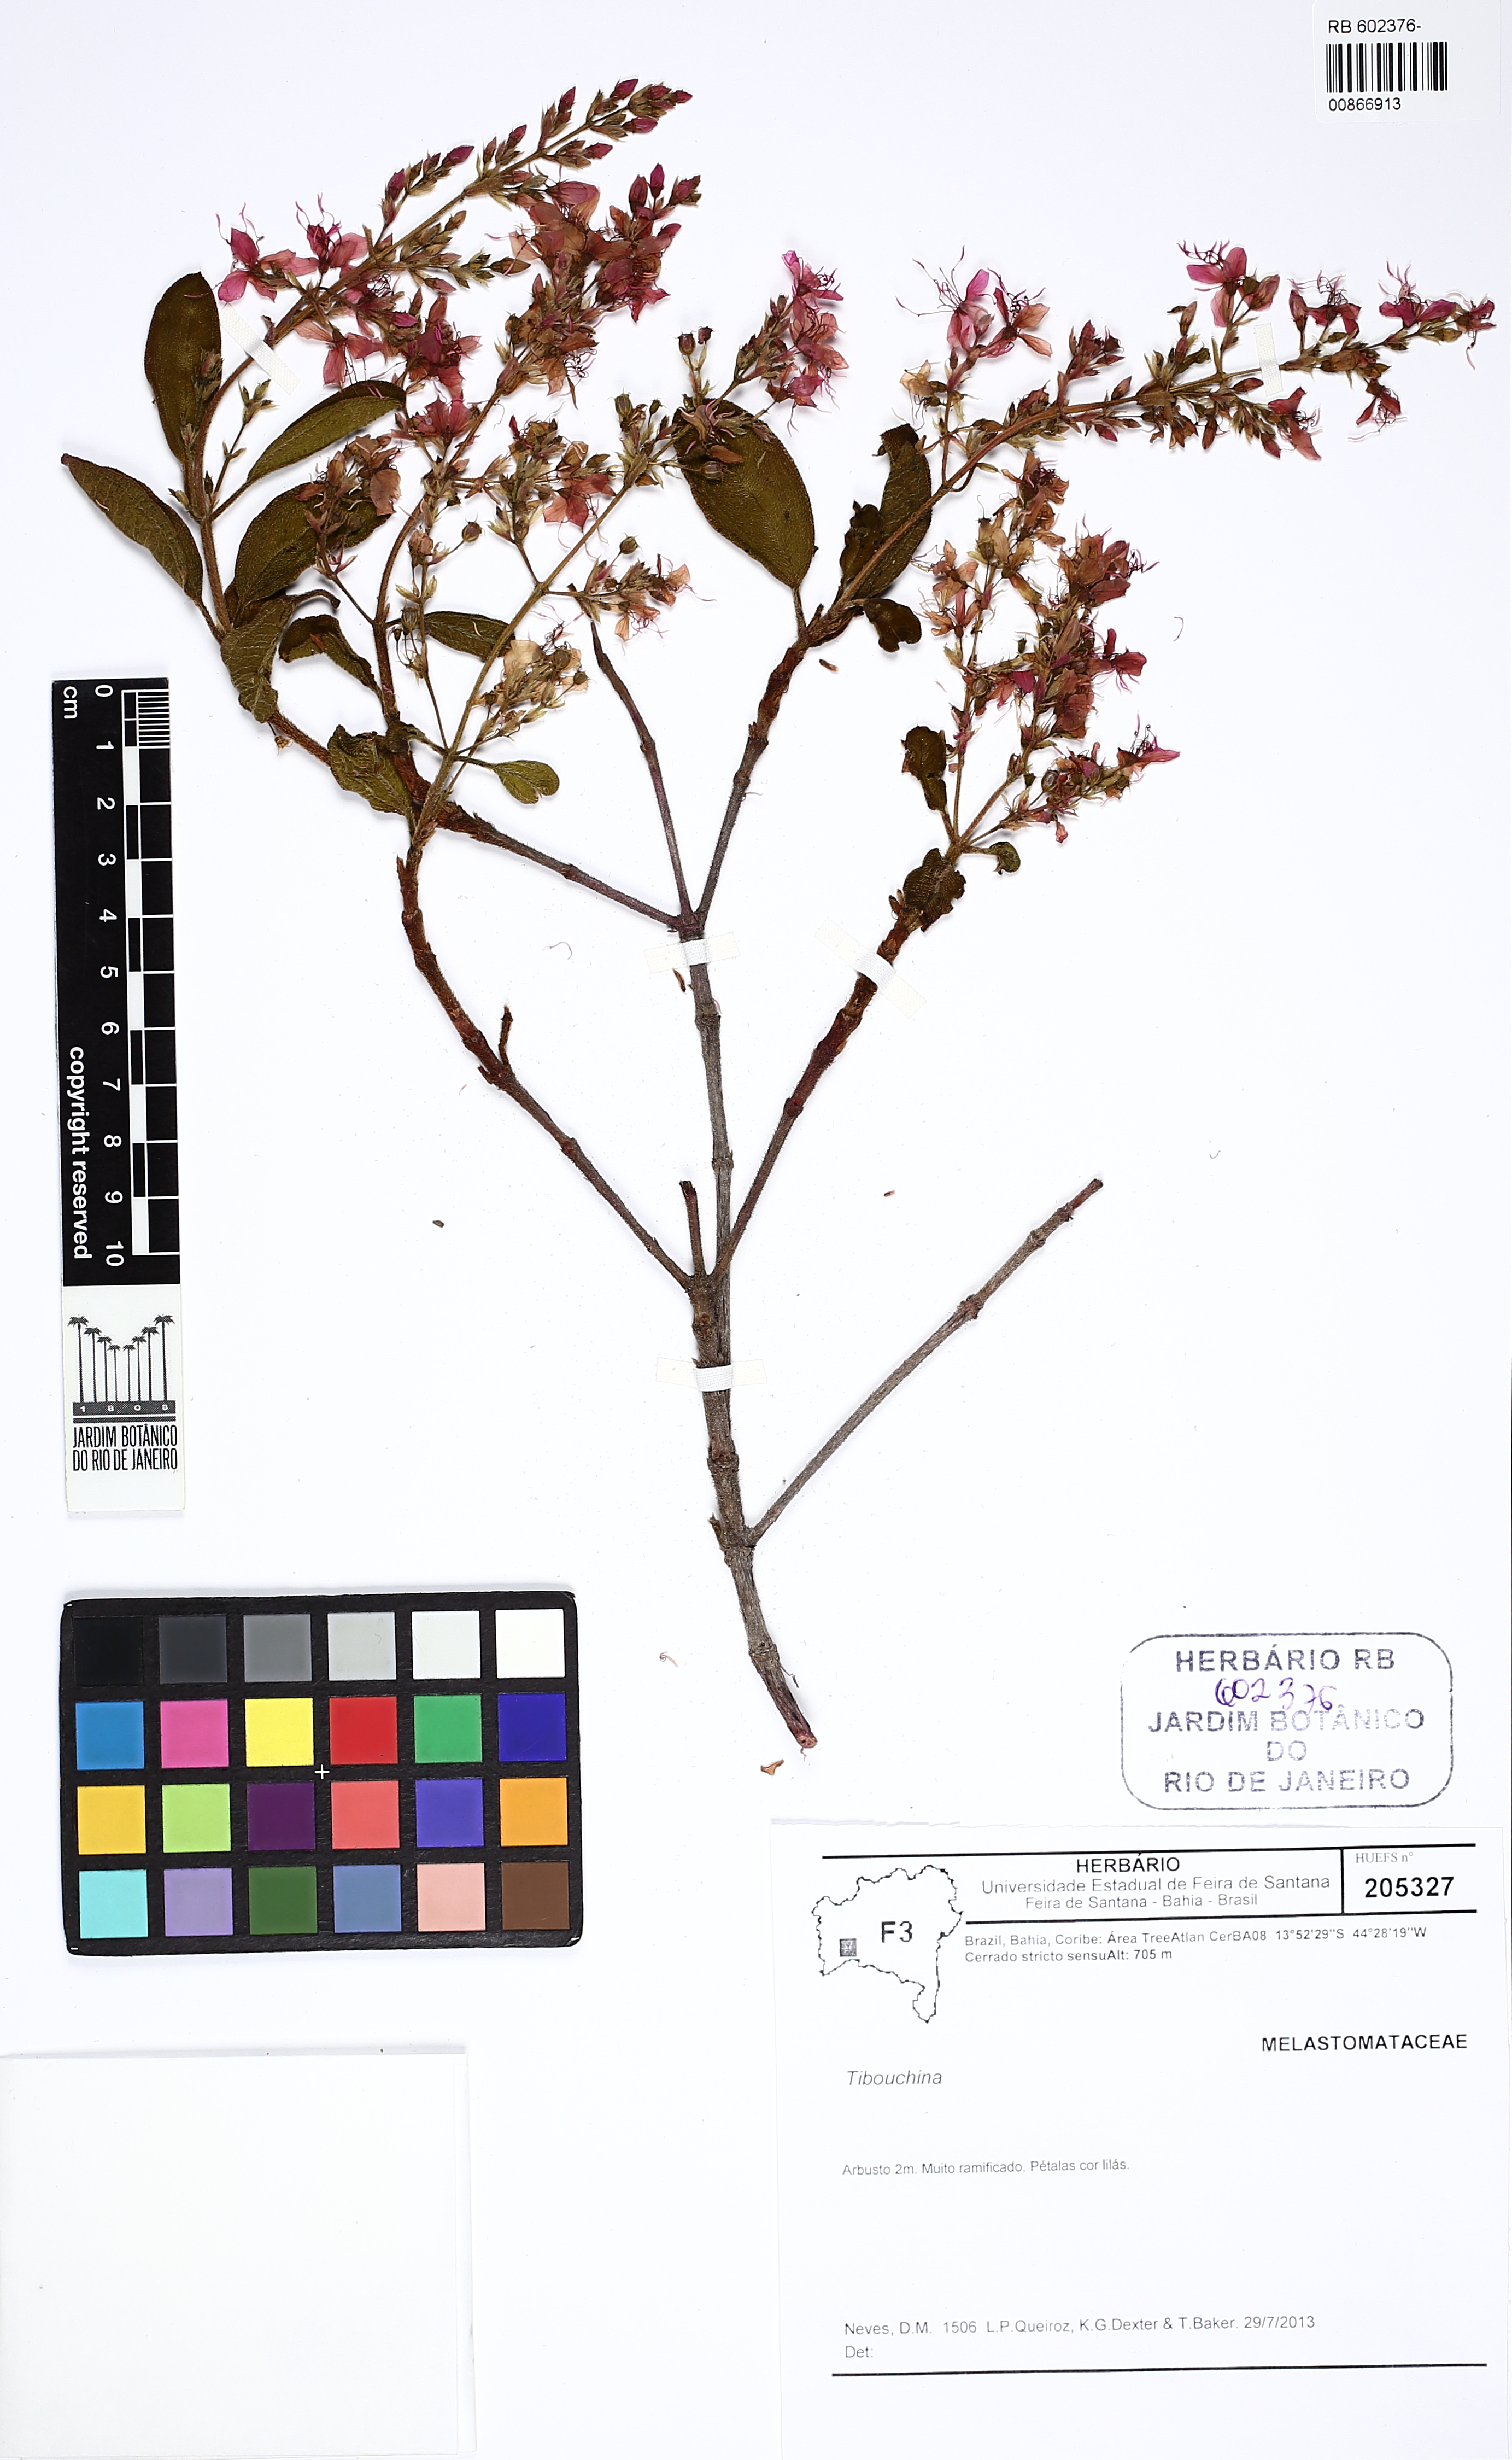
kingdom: Plantae
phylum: Tracheophyta
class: Magnoliopsida
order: Myrtales
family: Melastomataceae
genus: Macairea
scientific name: Macairea
